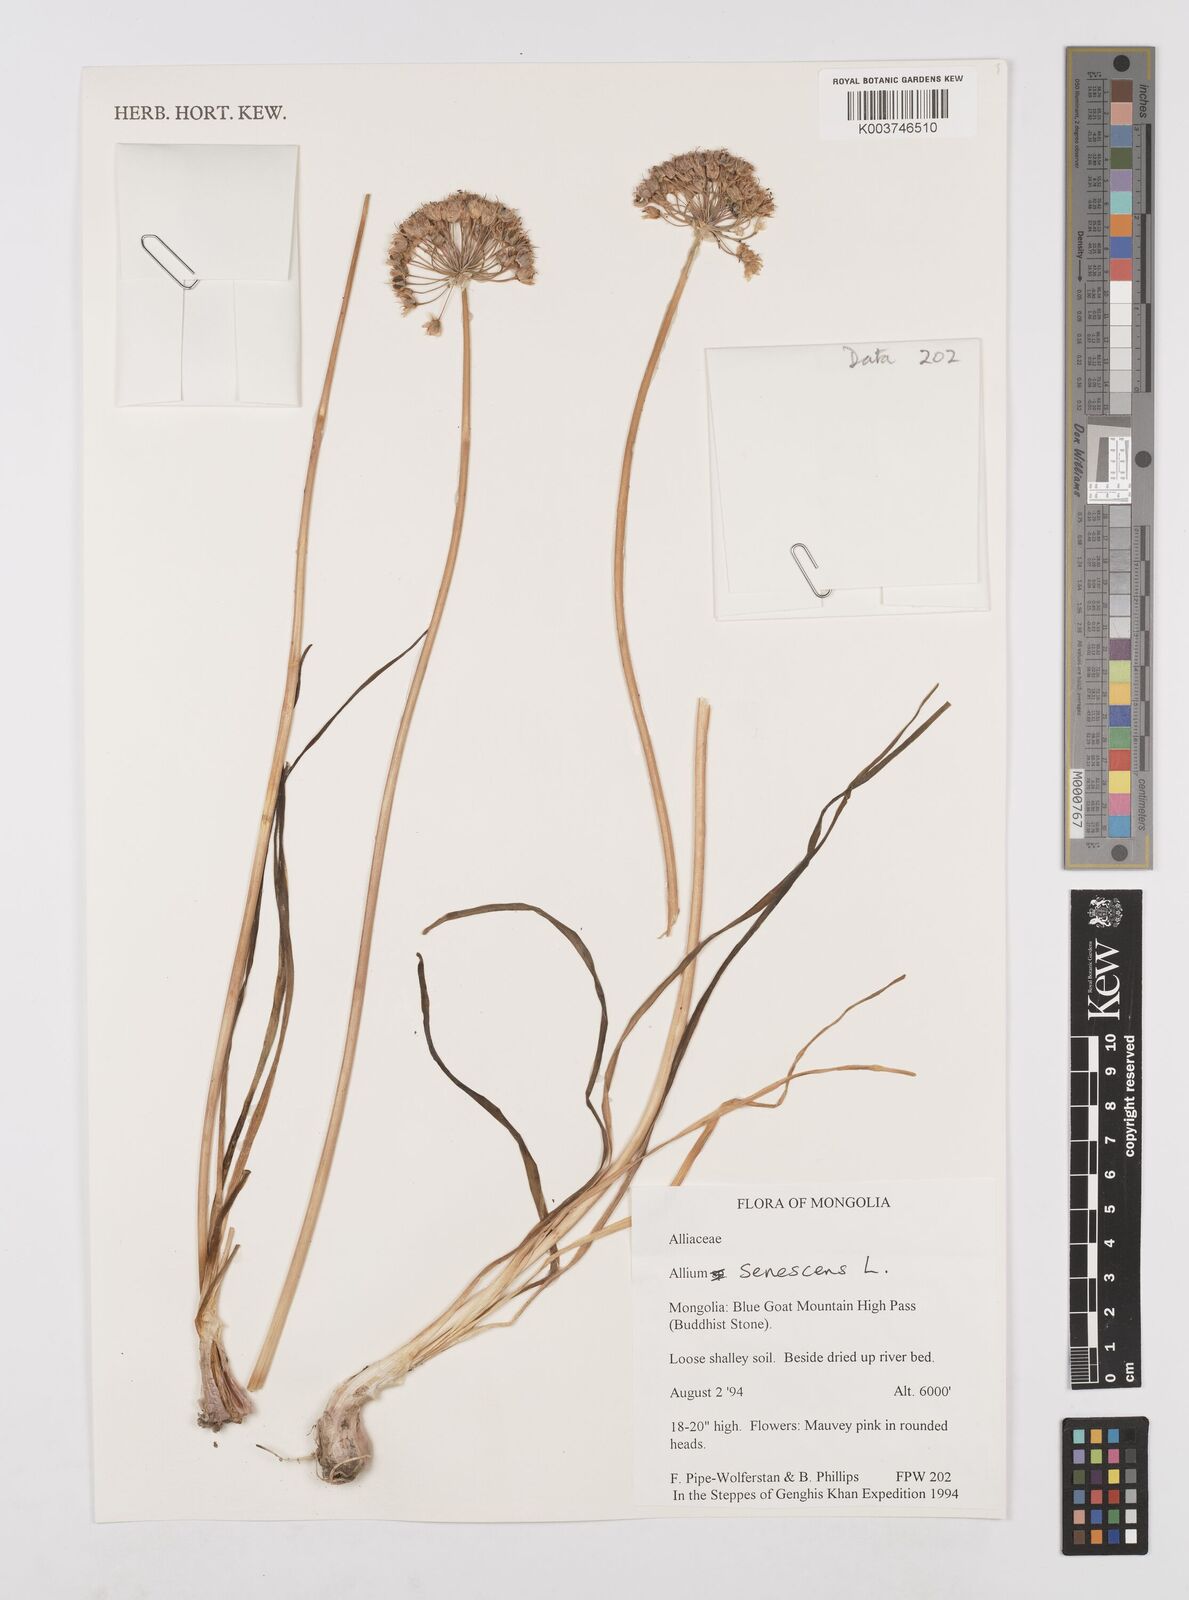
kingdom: Plantae
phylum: Tracheophyta
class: Liliopsida
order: Asparagales
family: Amaryllidaceae
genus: Allium
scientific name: Allium chinense
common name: Japanese scallion
